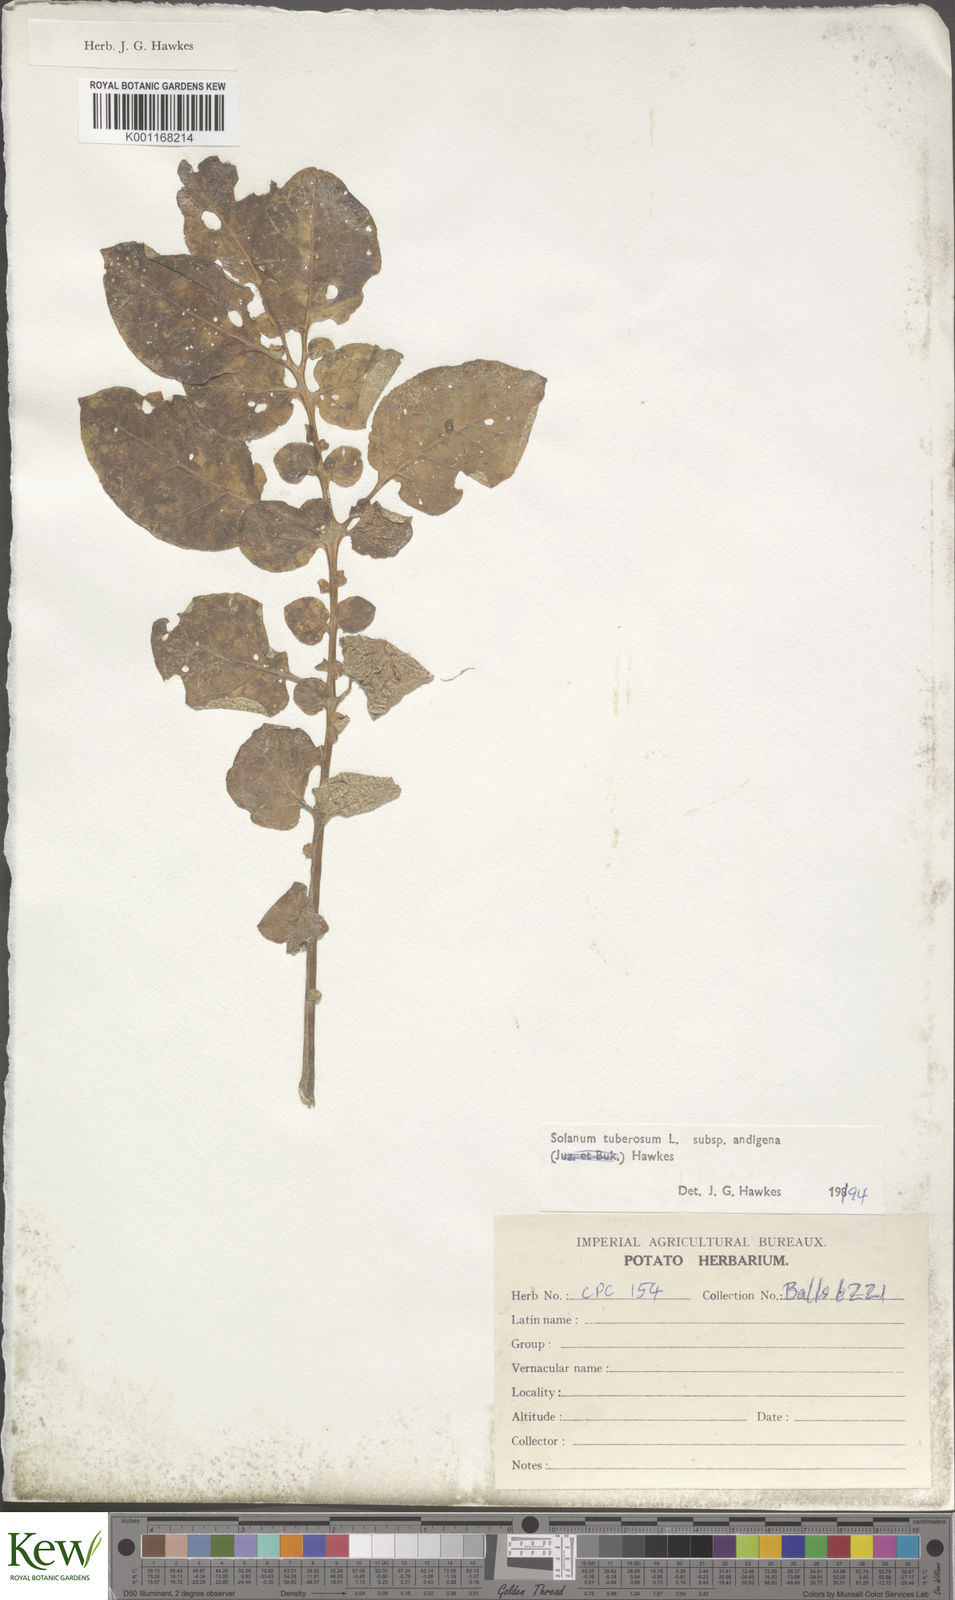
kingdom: Plantae
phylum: Tracheophyta
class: Magnoliopsida
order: Solanales
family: Solanaceae
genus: Solanum
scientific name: Solanum tuberosum
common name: Potato
